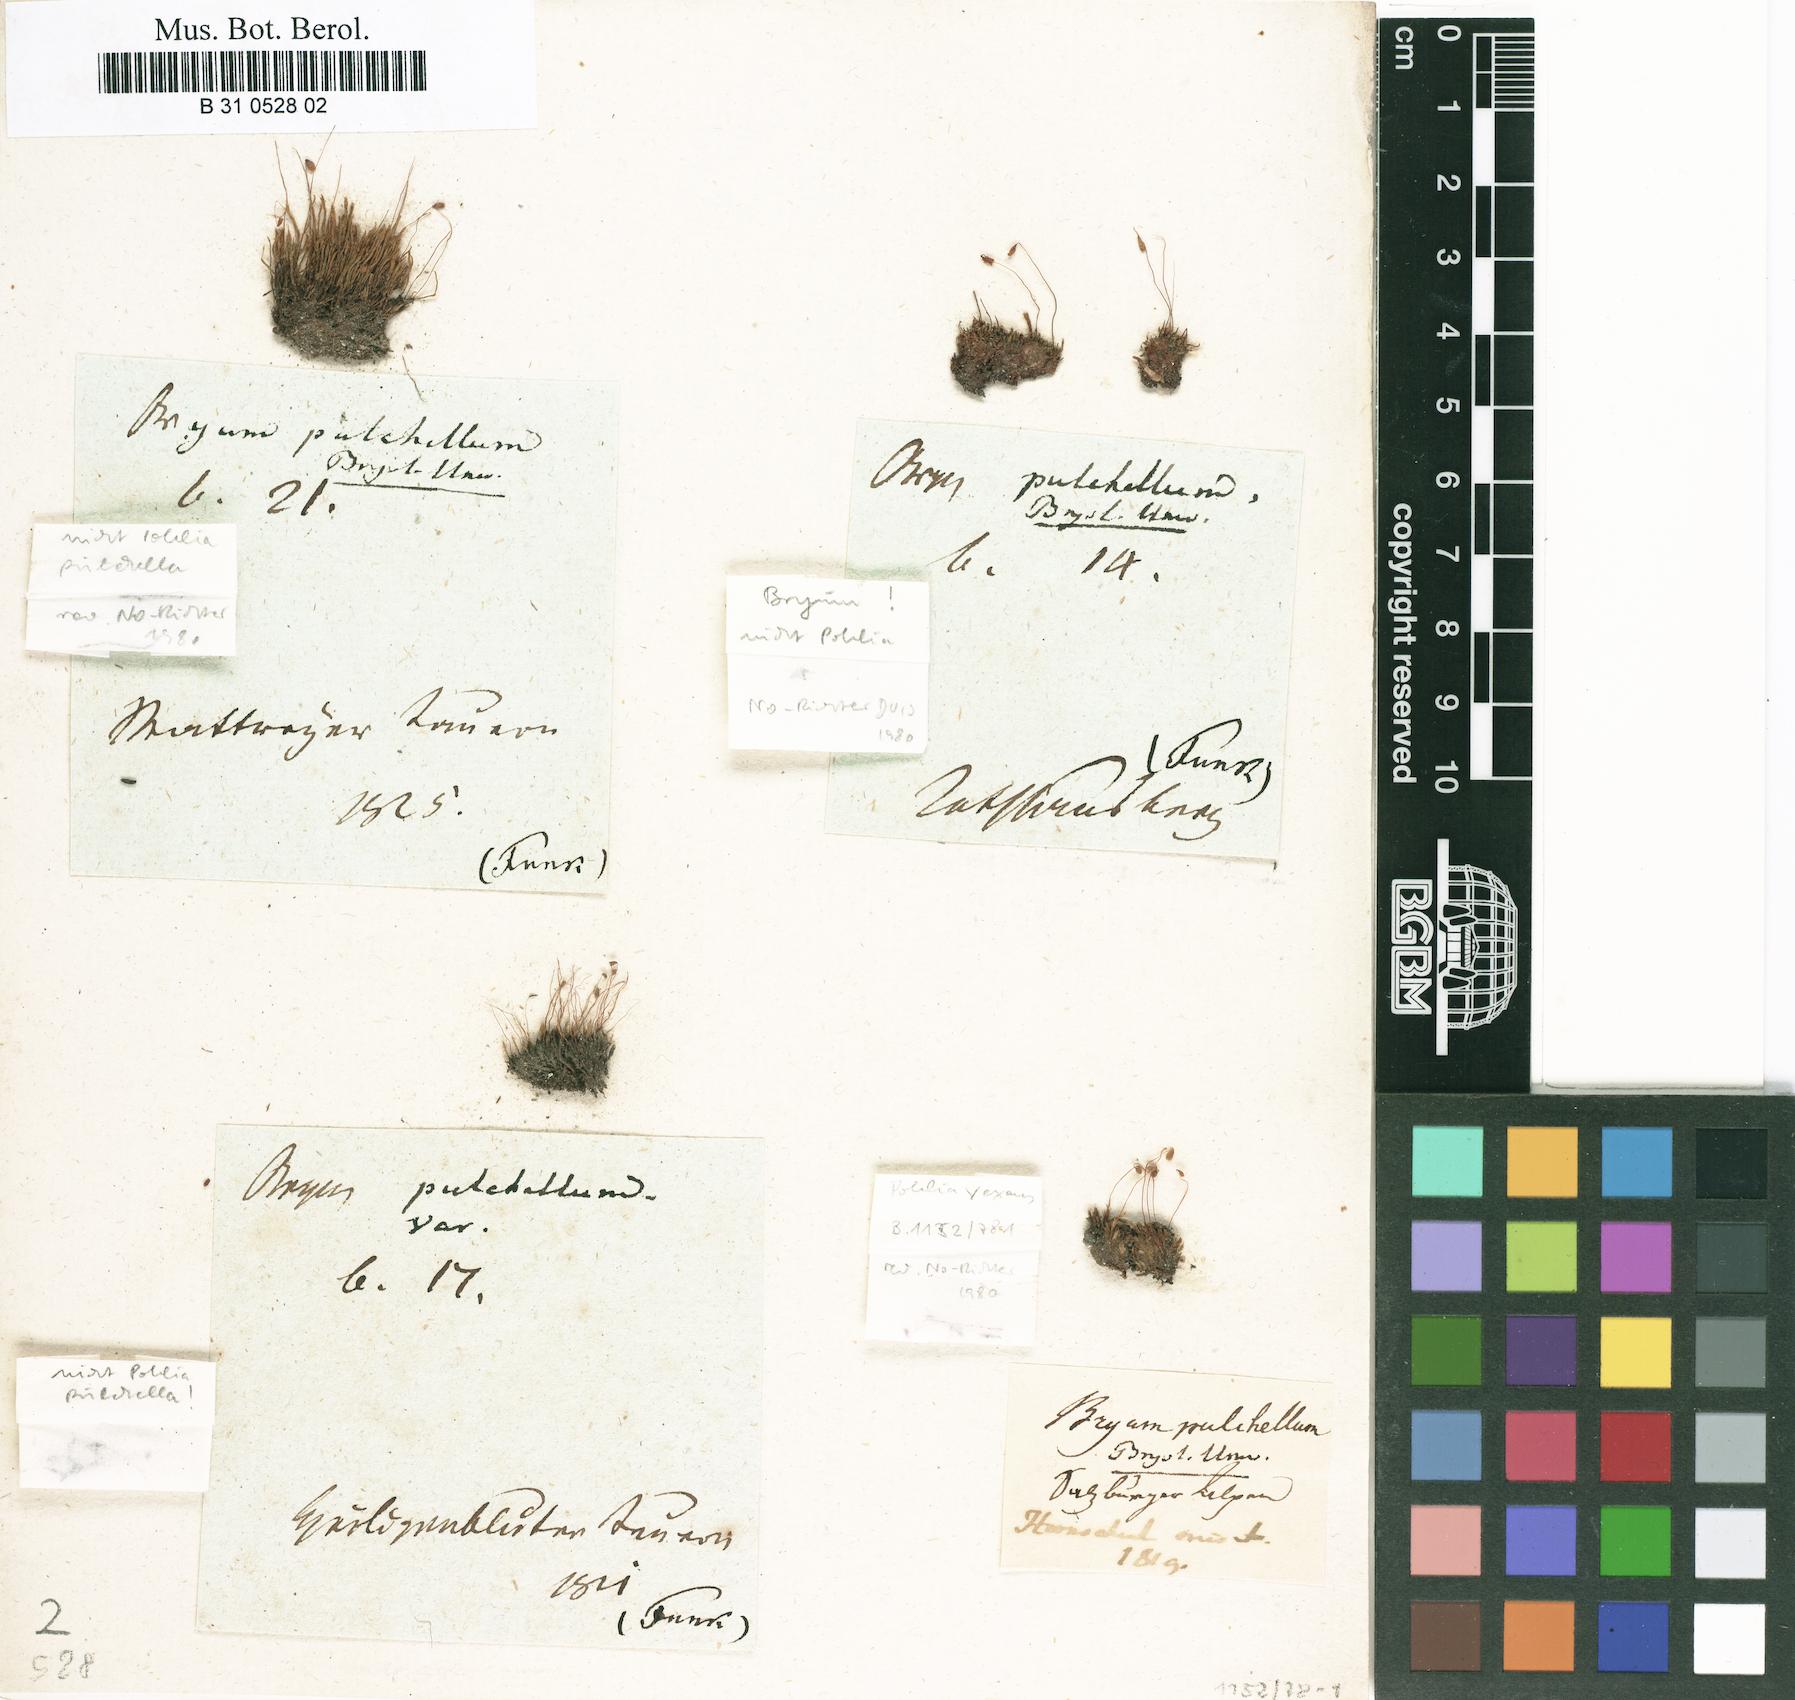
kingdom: Plantae
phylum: Bryophyta
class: Bryopsida
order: Bryales
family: Mniaceae
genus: Pohlia
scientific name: Pohlia lescuriana
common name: Pear-shaped nodding moss
